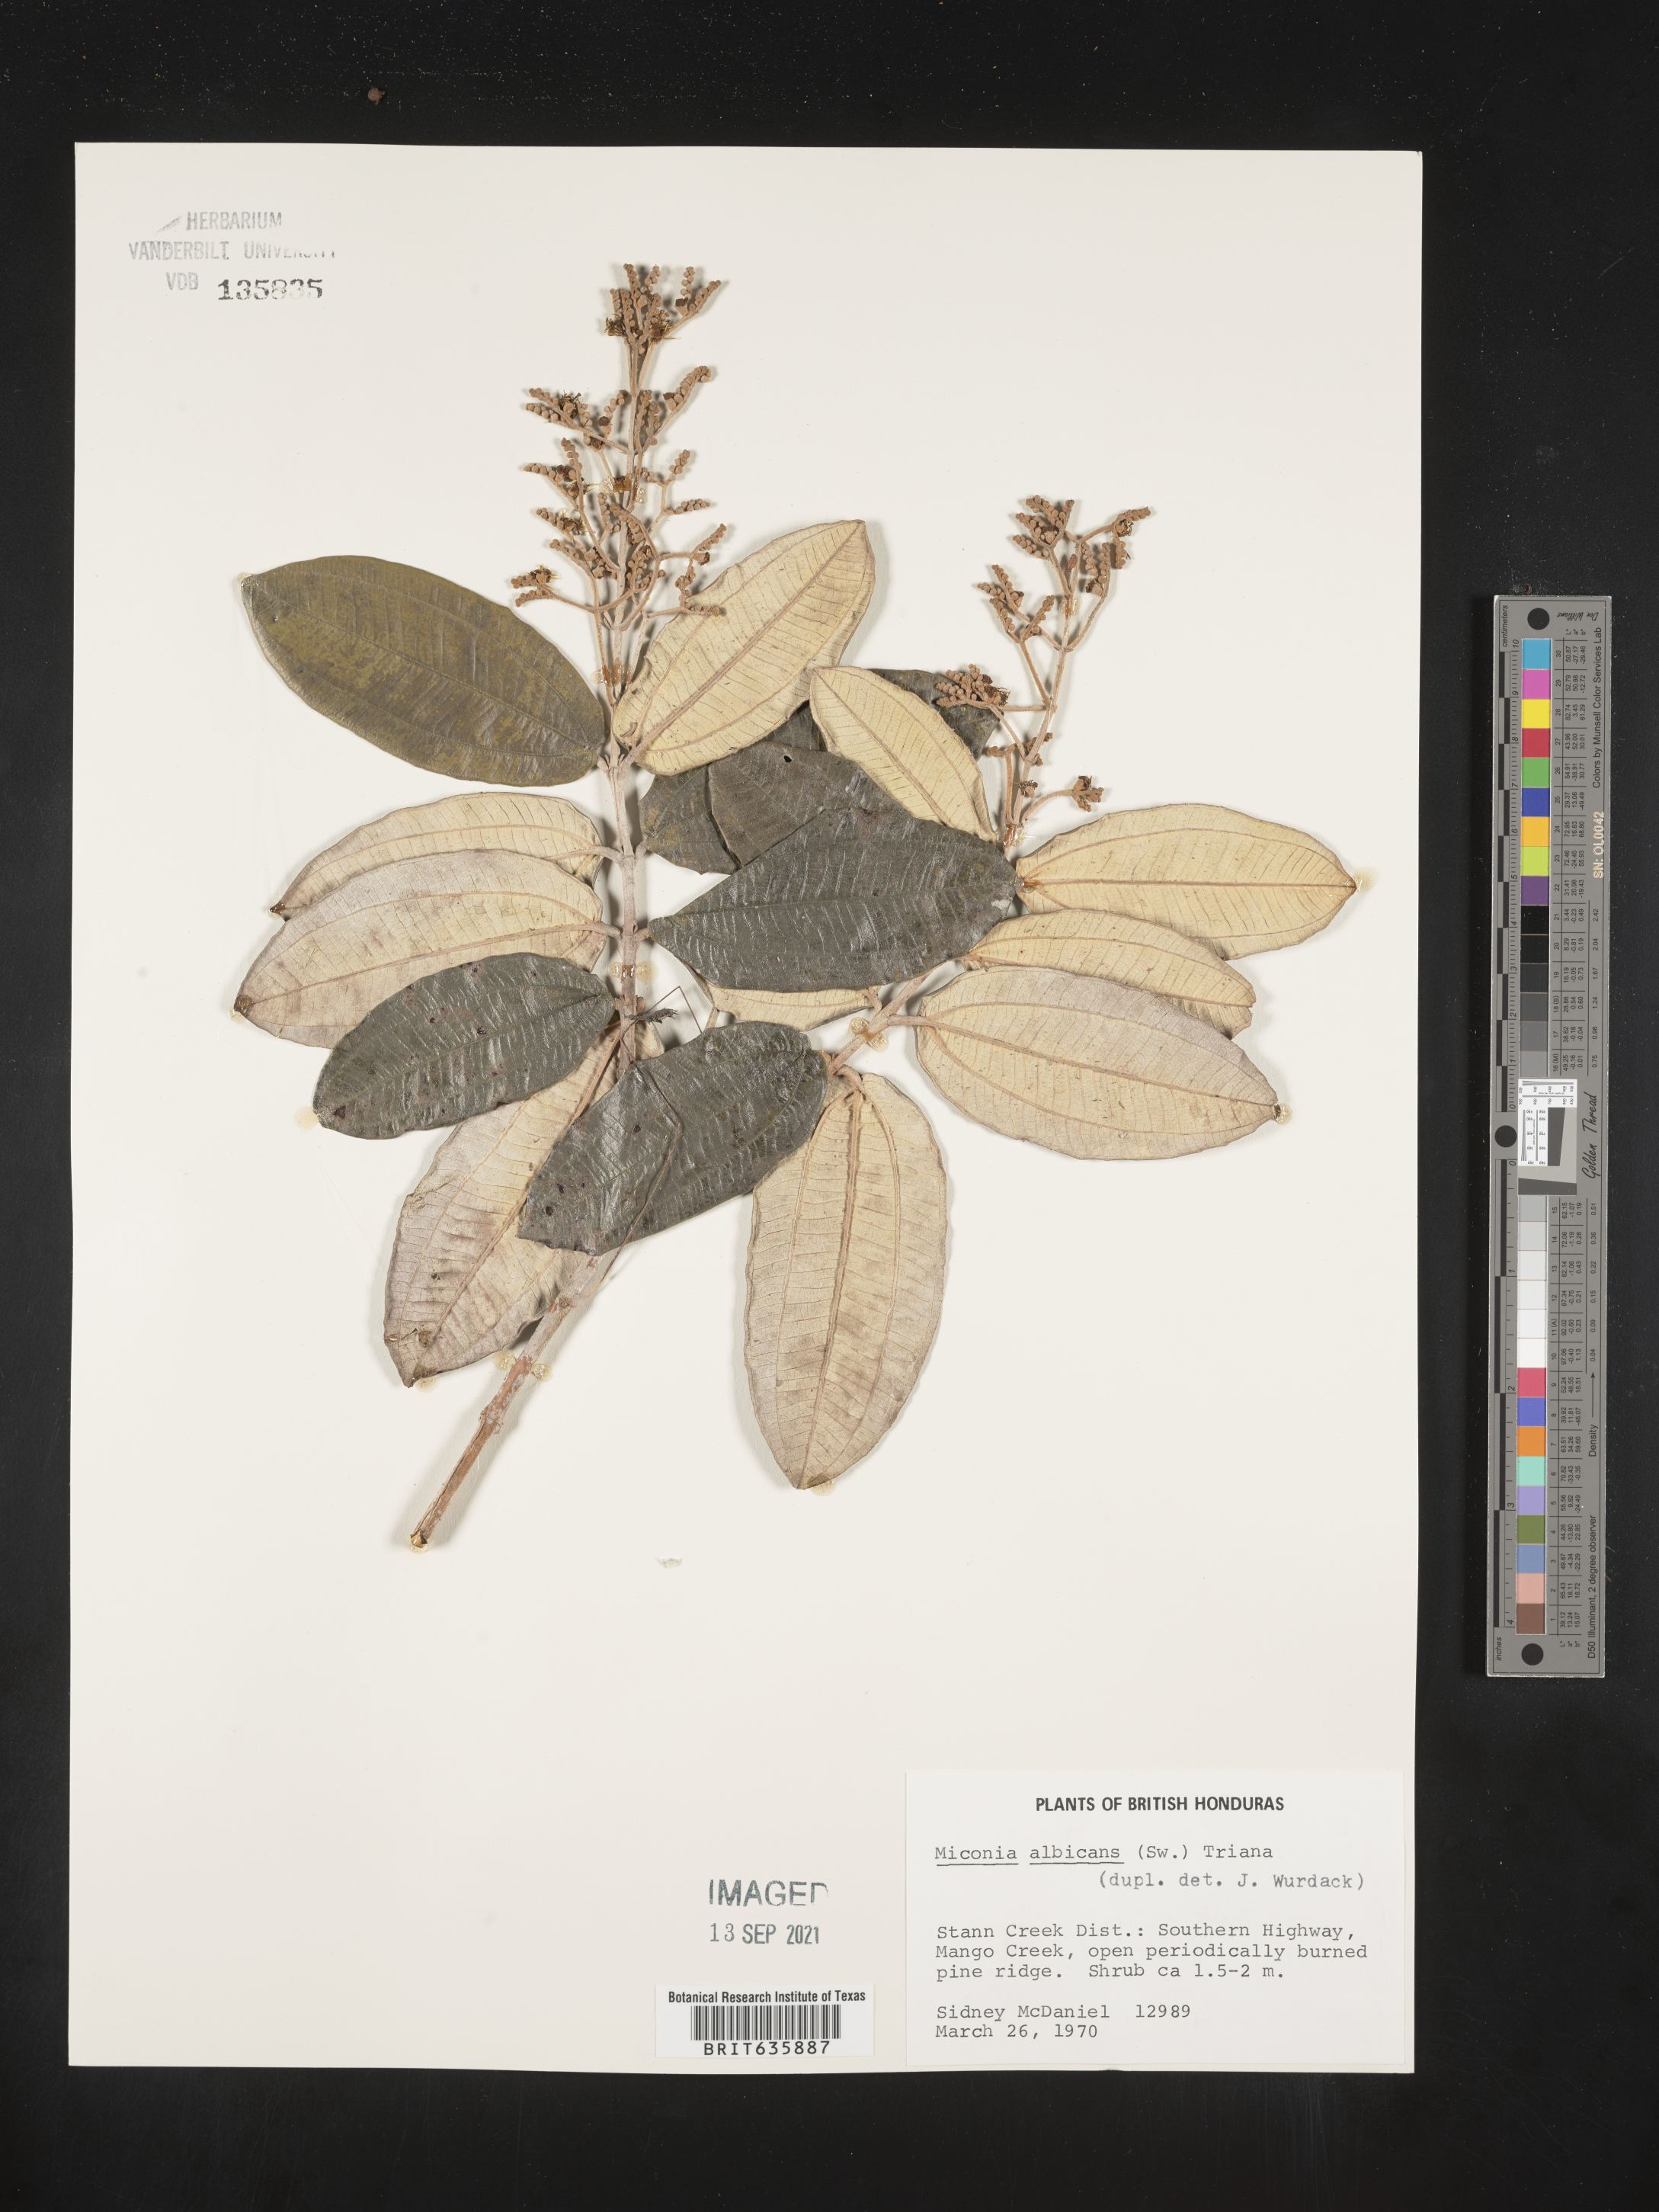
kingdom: Plantae
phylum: Tracheophyta
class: Magnoliopsida
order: Myrtales
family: Melastomataceae
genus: Miconia
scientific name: Miconia
